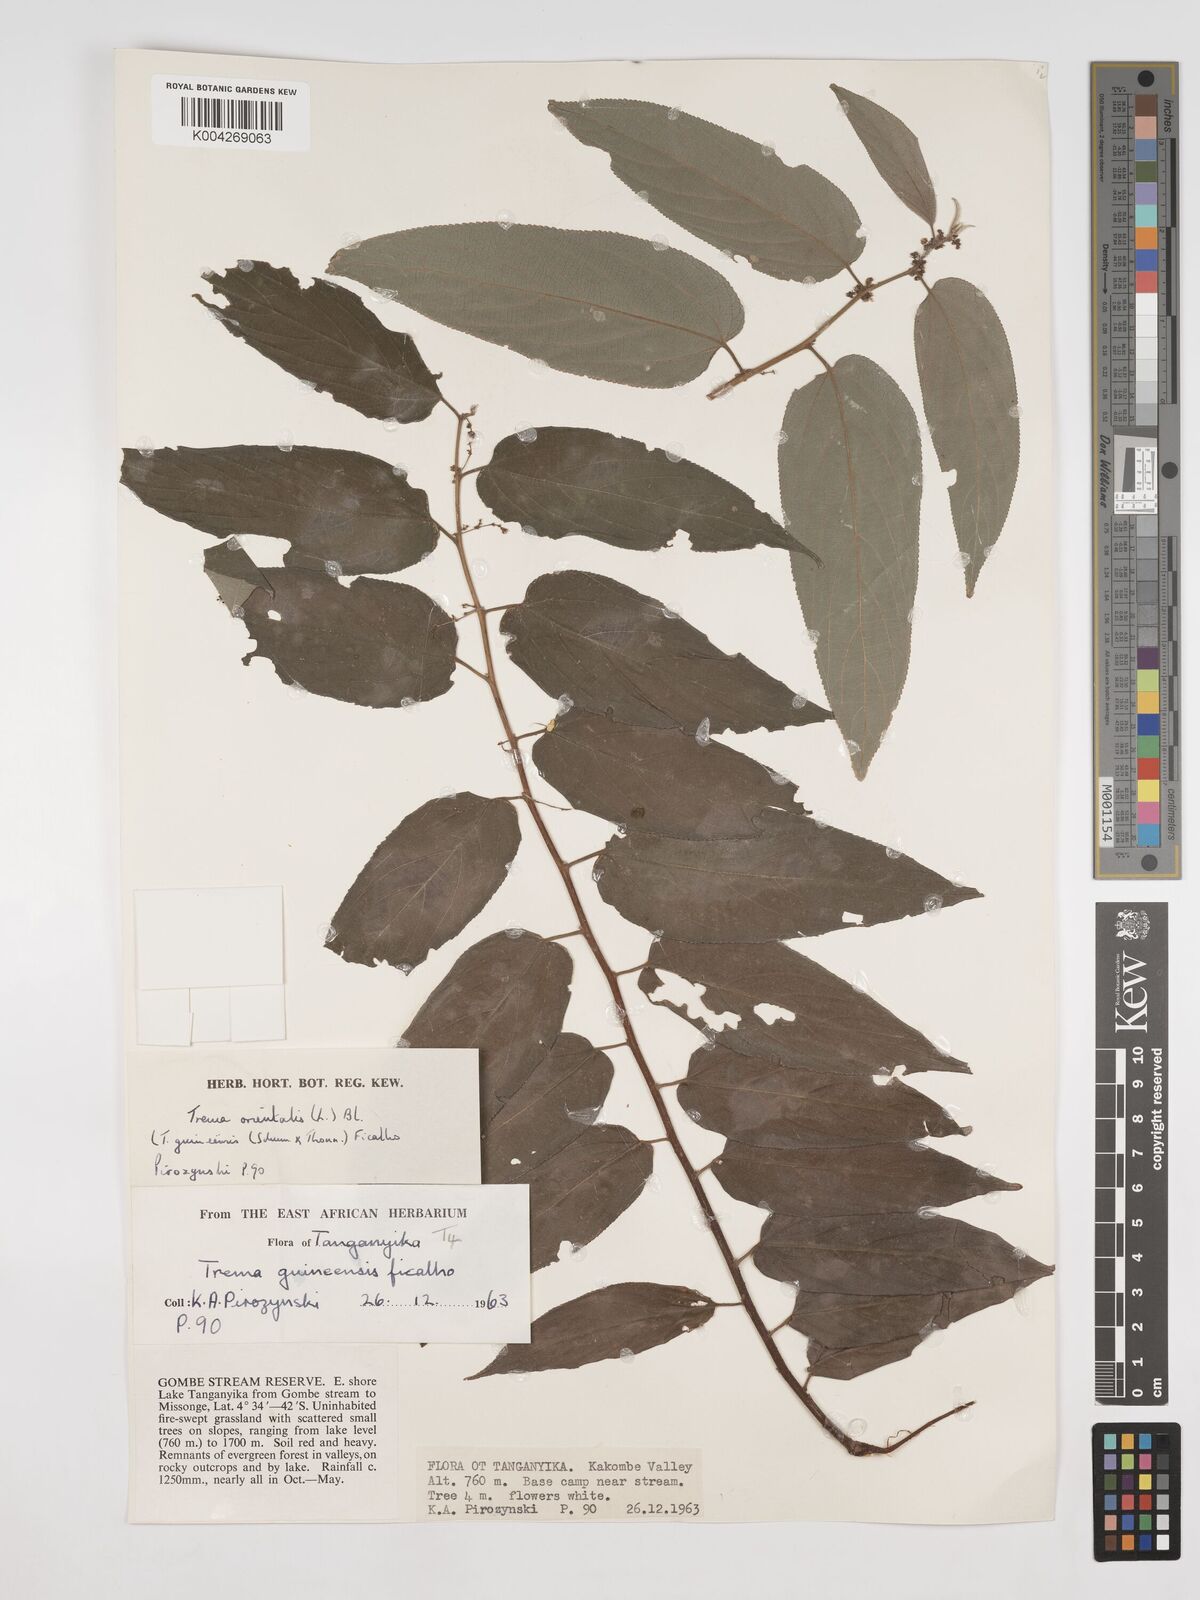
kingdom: Plantae
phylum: Tracheophyta
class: Magnoliopsida
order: Rosales
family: Cannabaceae
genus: Trema
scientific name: Trema orientale
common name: Indian charcoal tree
